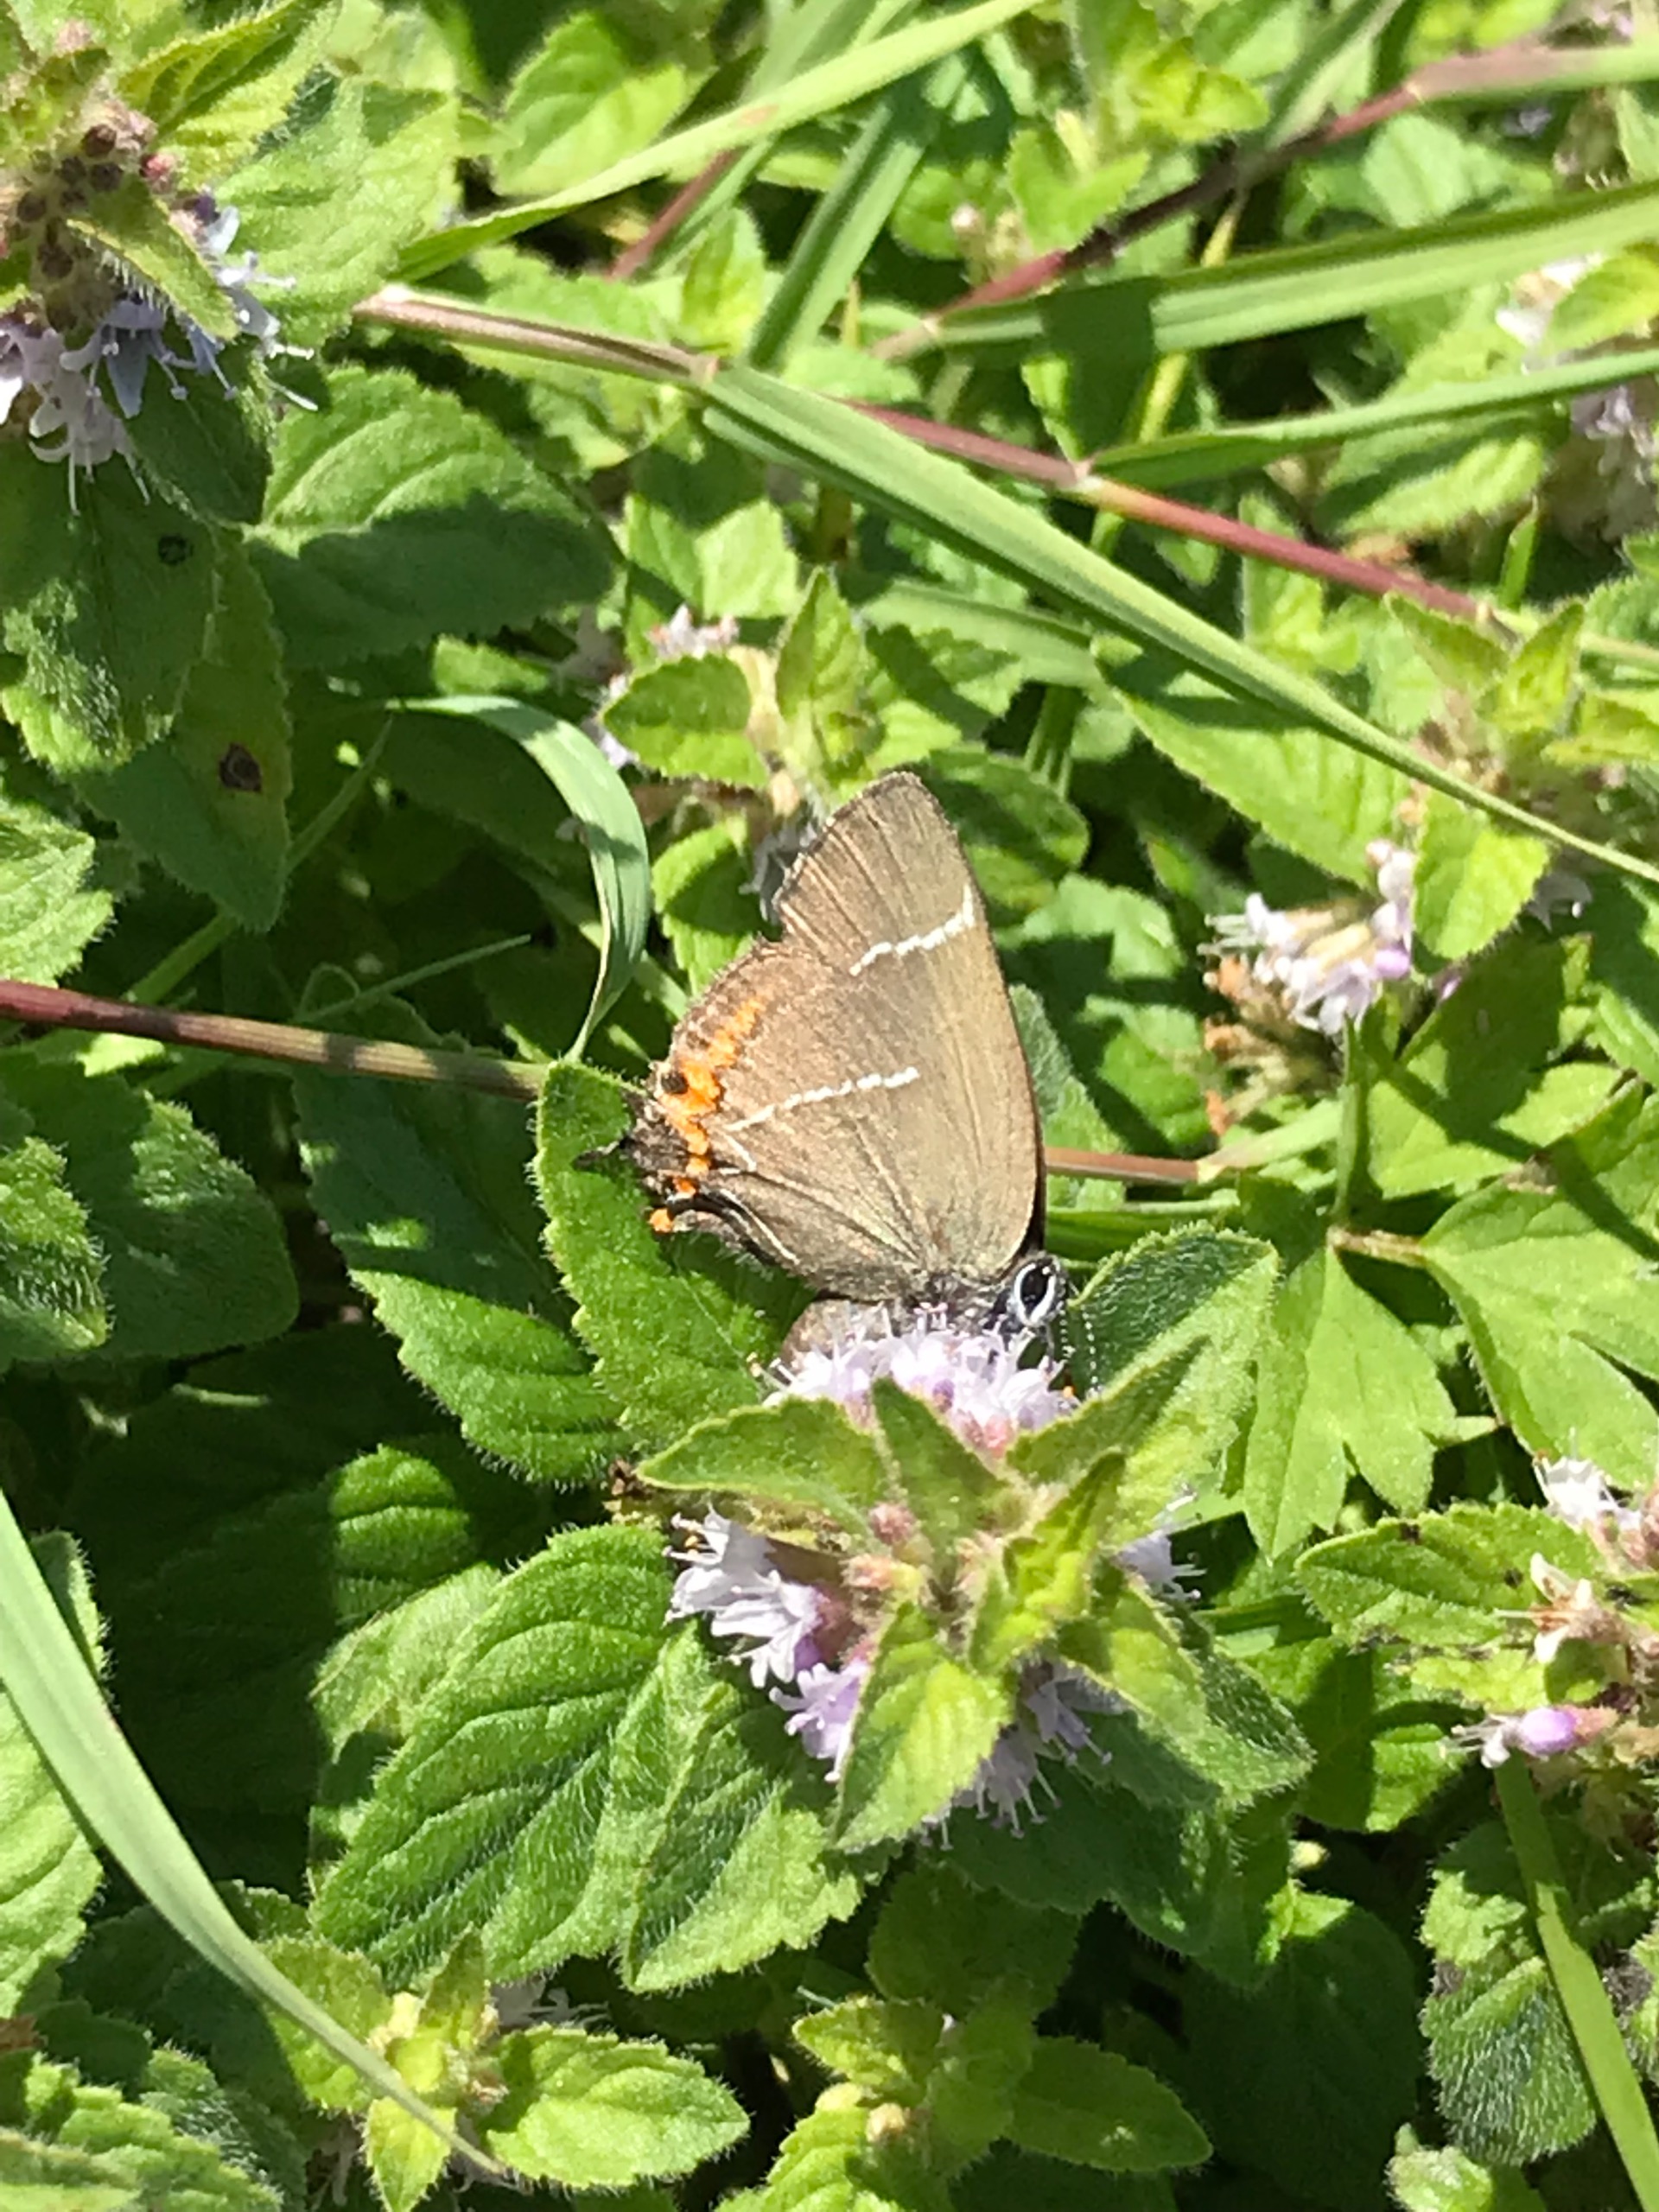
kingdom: Animalia
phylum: Arthropoda
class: Insecta
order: Lepidoptera
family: Lycaenidae
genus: Satyrium
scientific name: Satyrium w-album
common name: Det hvide W
